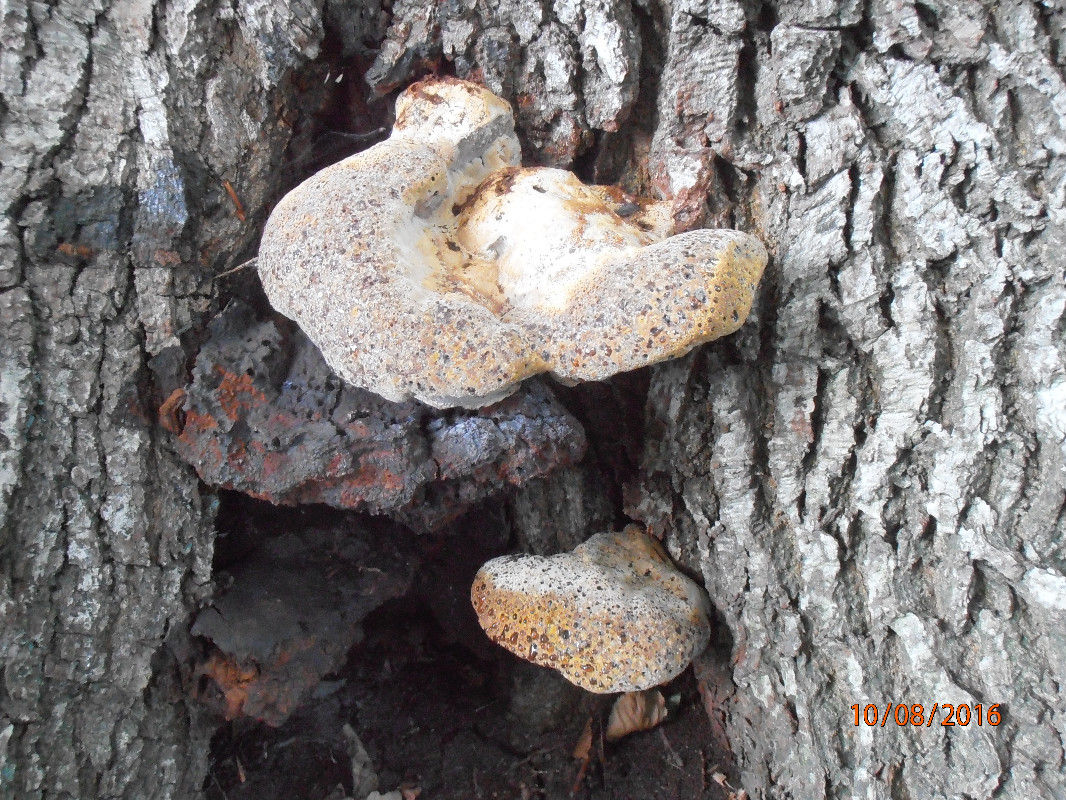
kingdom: Fungi
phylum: Basidiomycota
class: Agaricomycetes
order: Hymenochaetales
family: Hymenochaetaceae
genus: Pseudoinonotus
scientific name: Pseudoinonotus dryadeus
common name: ege-spejlporesvamp
